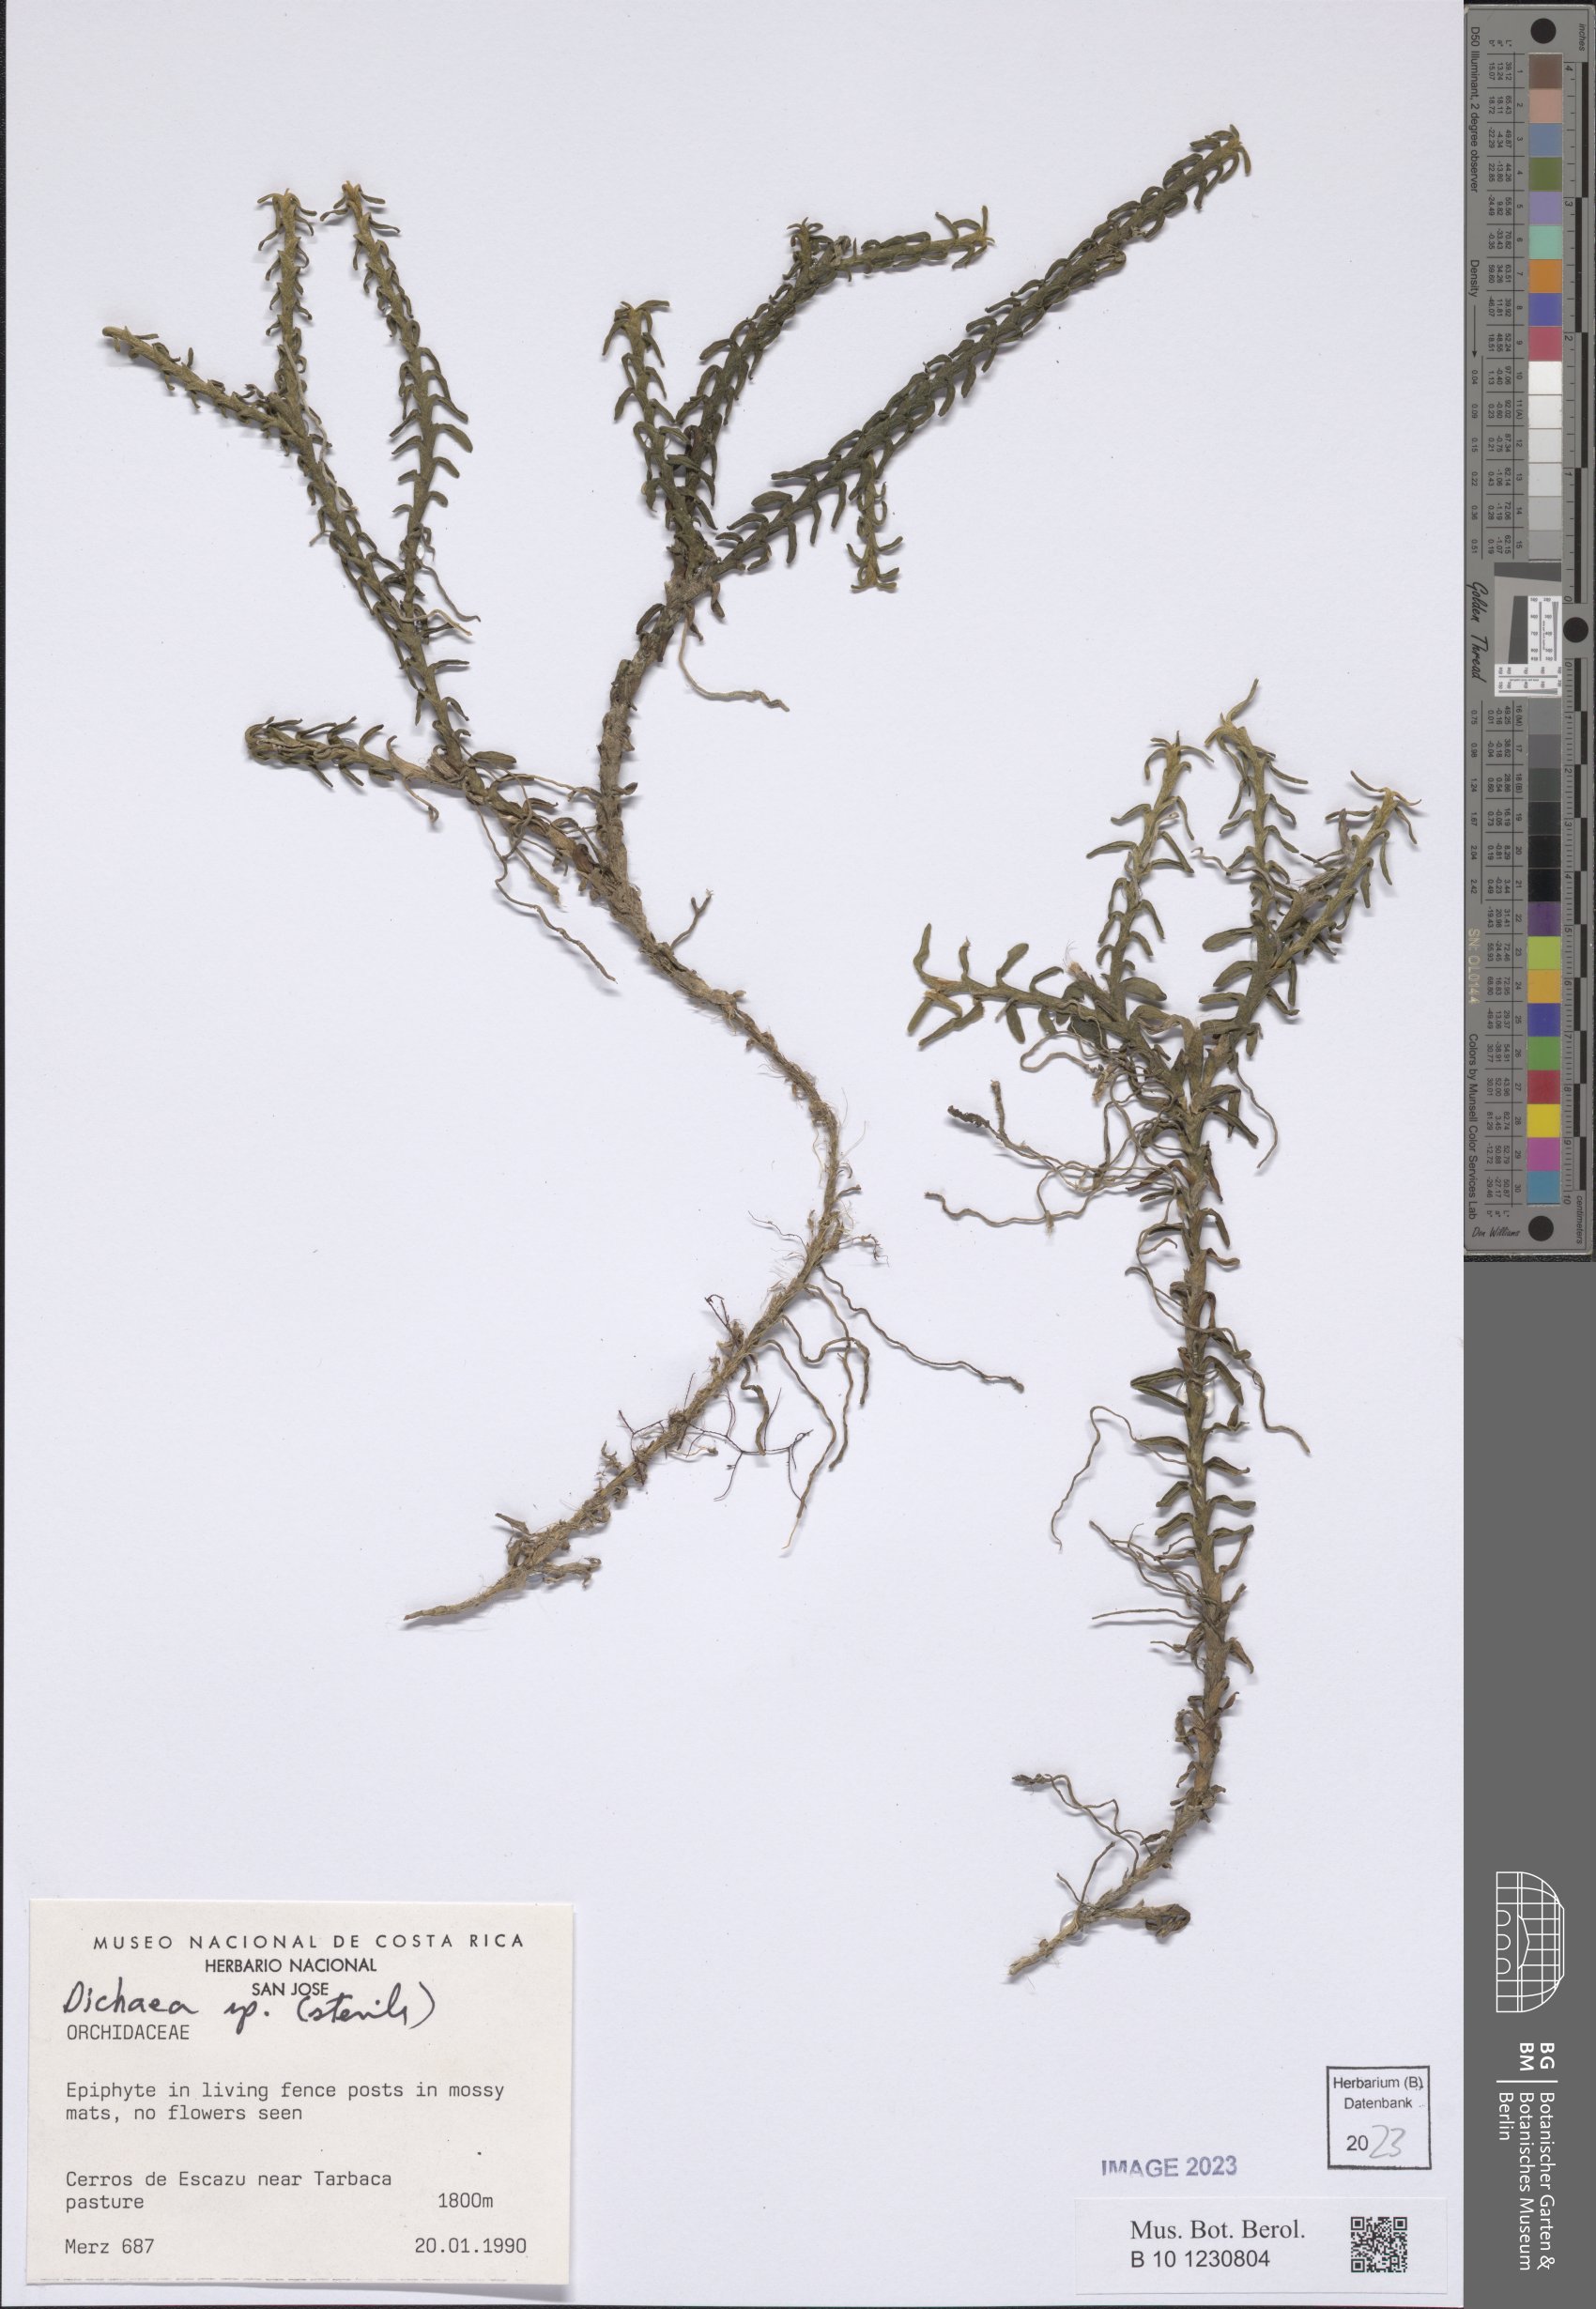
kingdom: Plantae
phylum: Tracheophyta
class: Liliopsida
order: Asparagales
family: Orchidaceae
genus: Dichaea
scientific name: Dichaea
